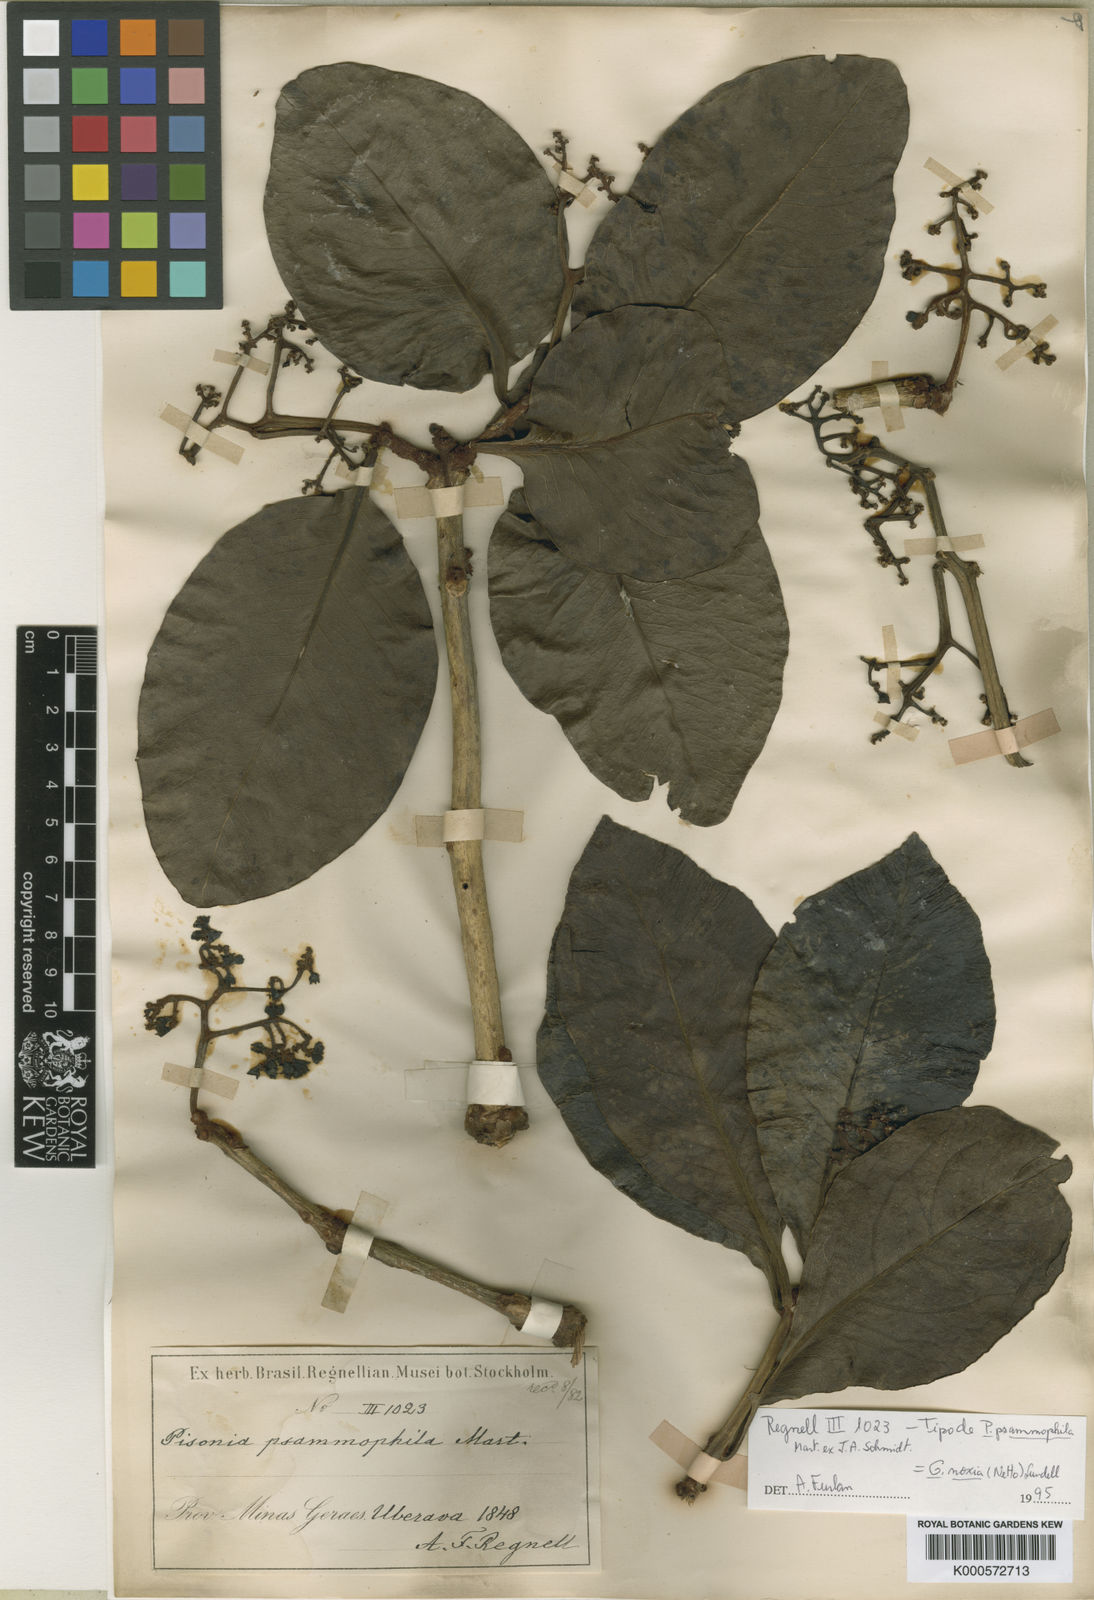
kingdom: Plantae
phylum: Tracheophyta
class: Magnoliopsida
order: Caryophyllales
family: Nyctaginaceae
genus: Guapira
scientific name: Guapira noxia
